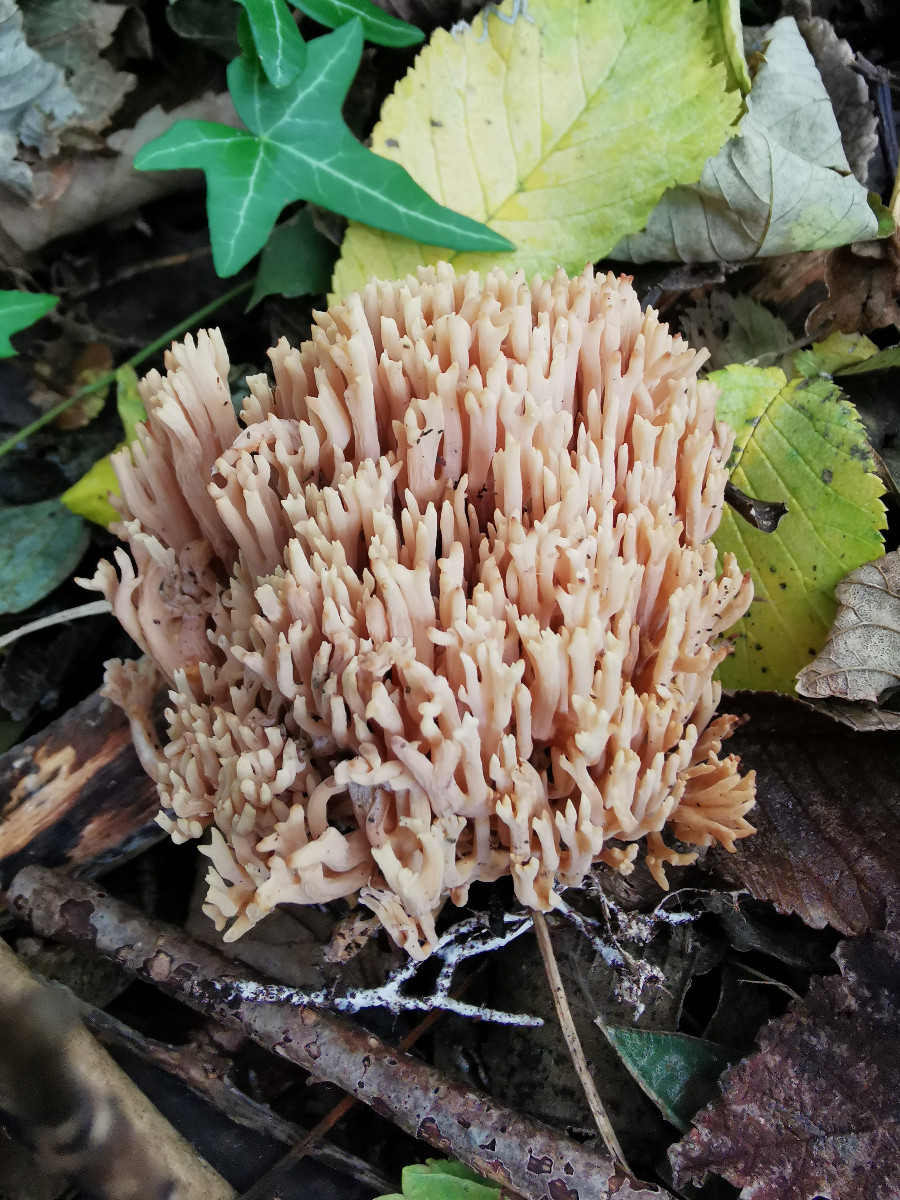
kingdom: Fungi
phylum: Basidiomycota
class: Agaricomycetes
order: Gomphales
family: Gomphaceae
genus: Ramaria
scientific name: Ramaria stricta
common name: rank koralsvamp
